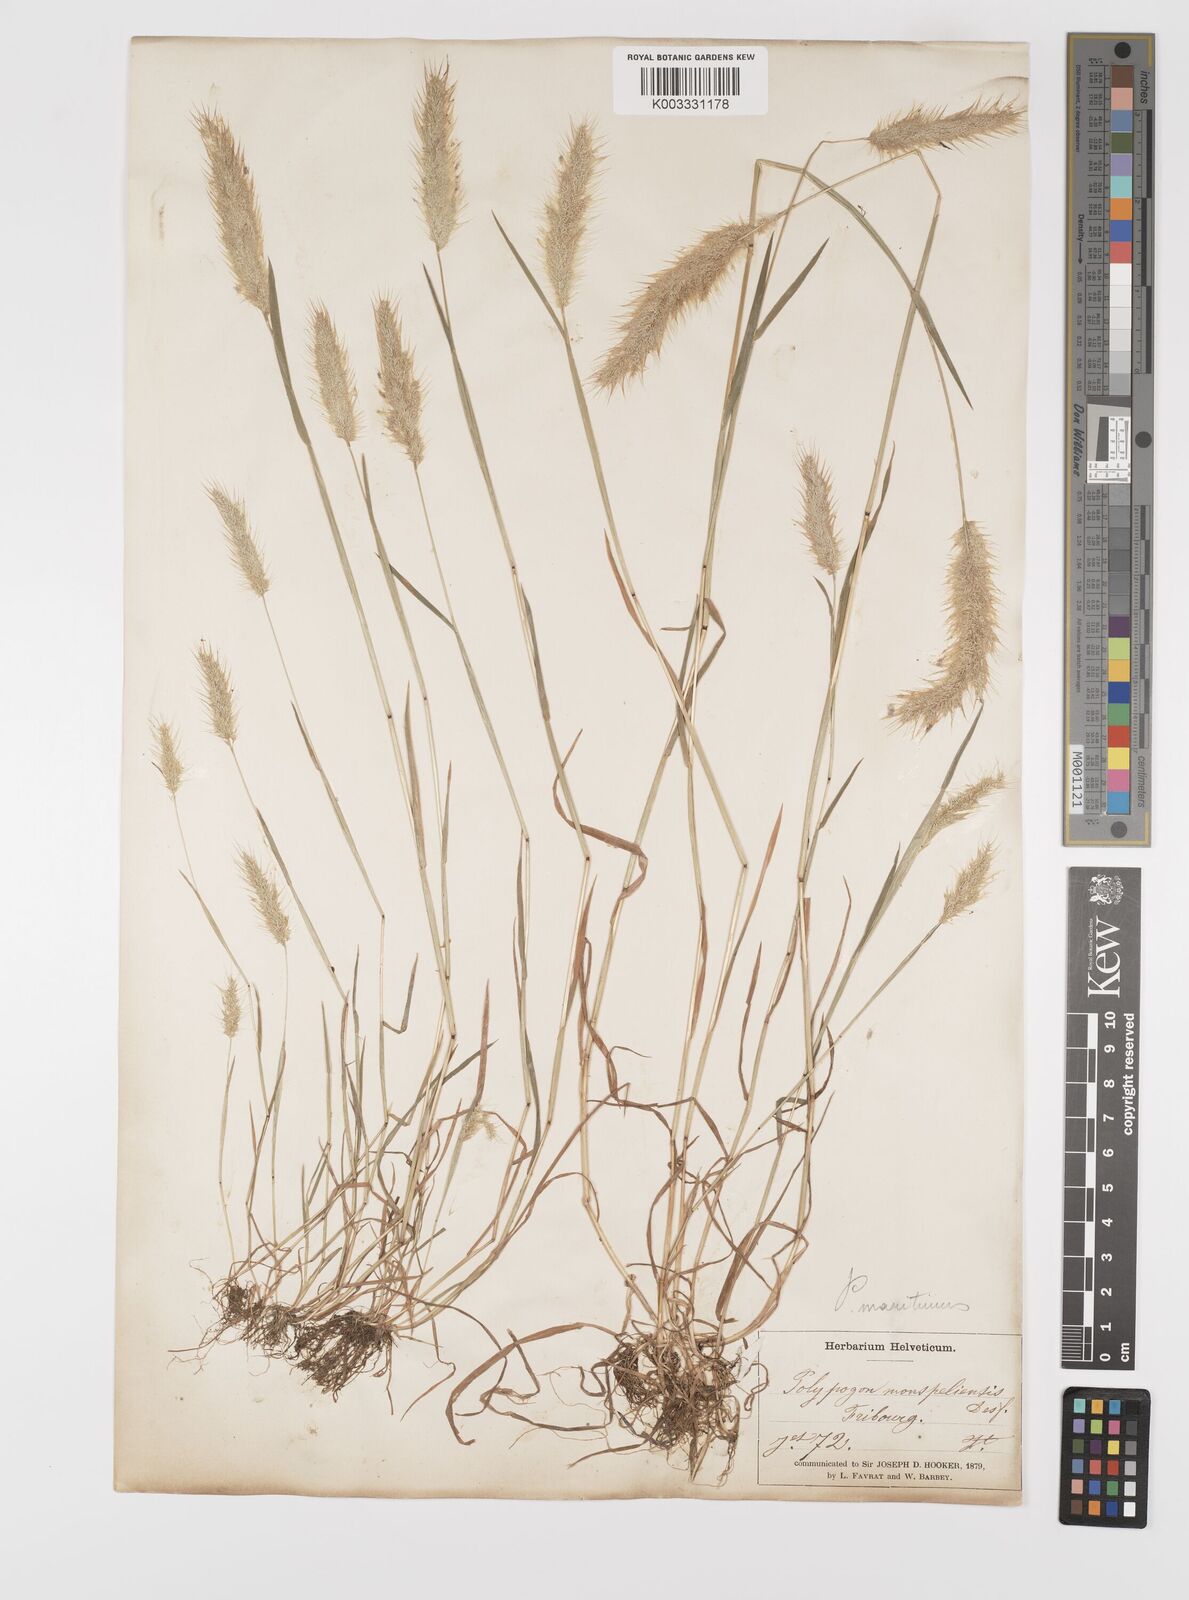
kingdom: Plantae
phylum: Tracheophyta
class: Liliopsida
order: Poales
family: Poaceae
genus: Polypogon
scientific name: Polypogon maritimus
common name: Mediterranean rabbitsfoot grass
